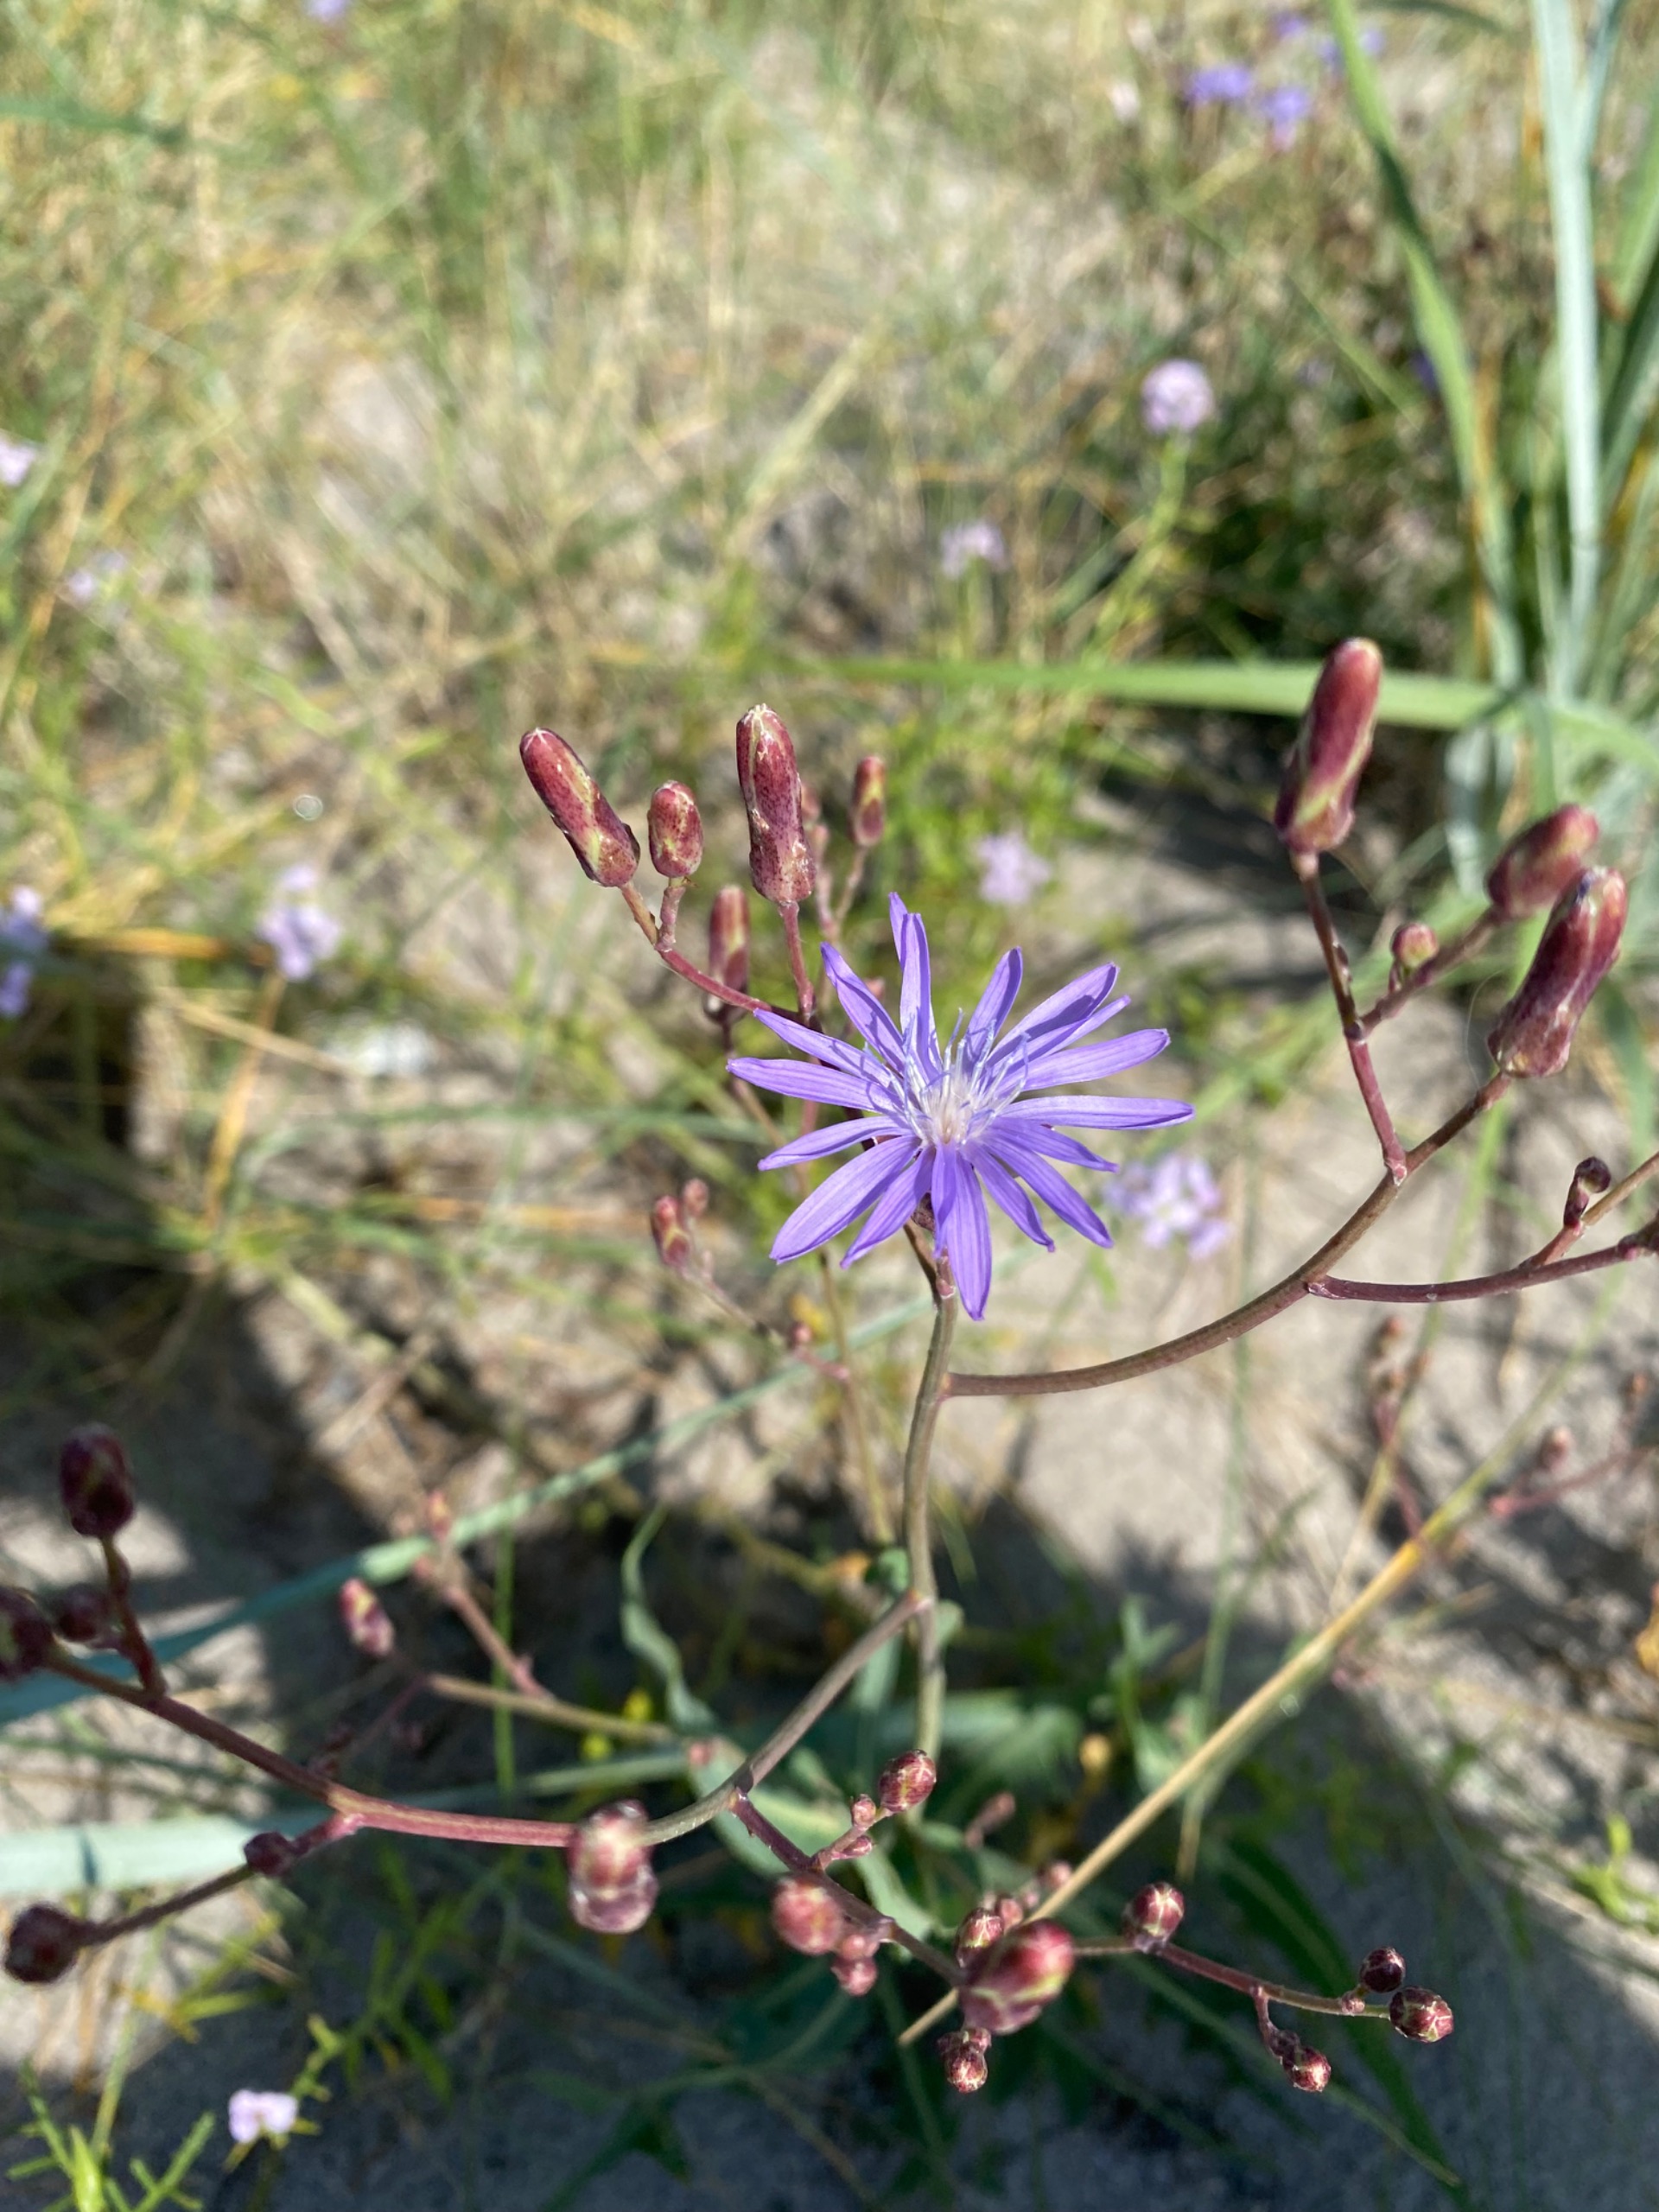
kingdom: Plantae
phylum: Tracheophyta
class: Magnoliopsida
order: Asterales
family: Asteraceae
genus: Lactuca
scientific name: Lactuca tatarica
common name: Strand-salat
